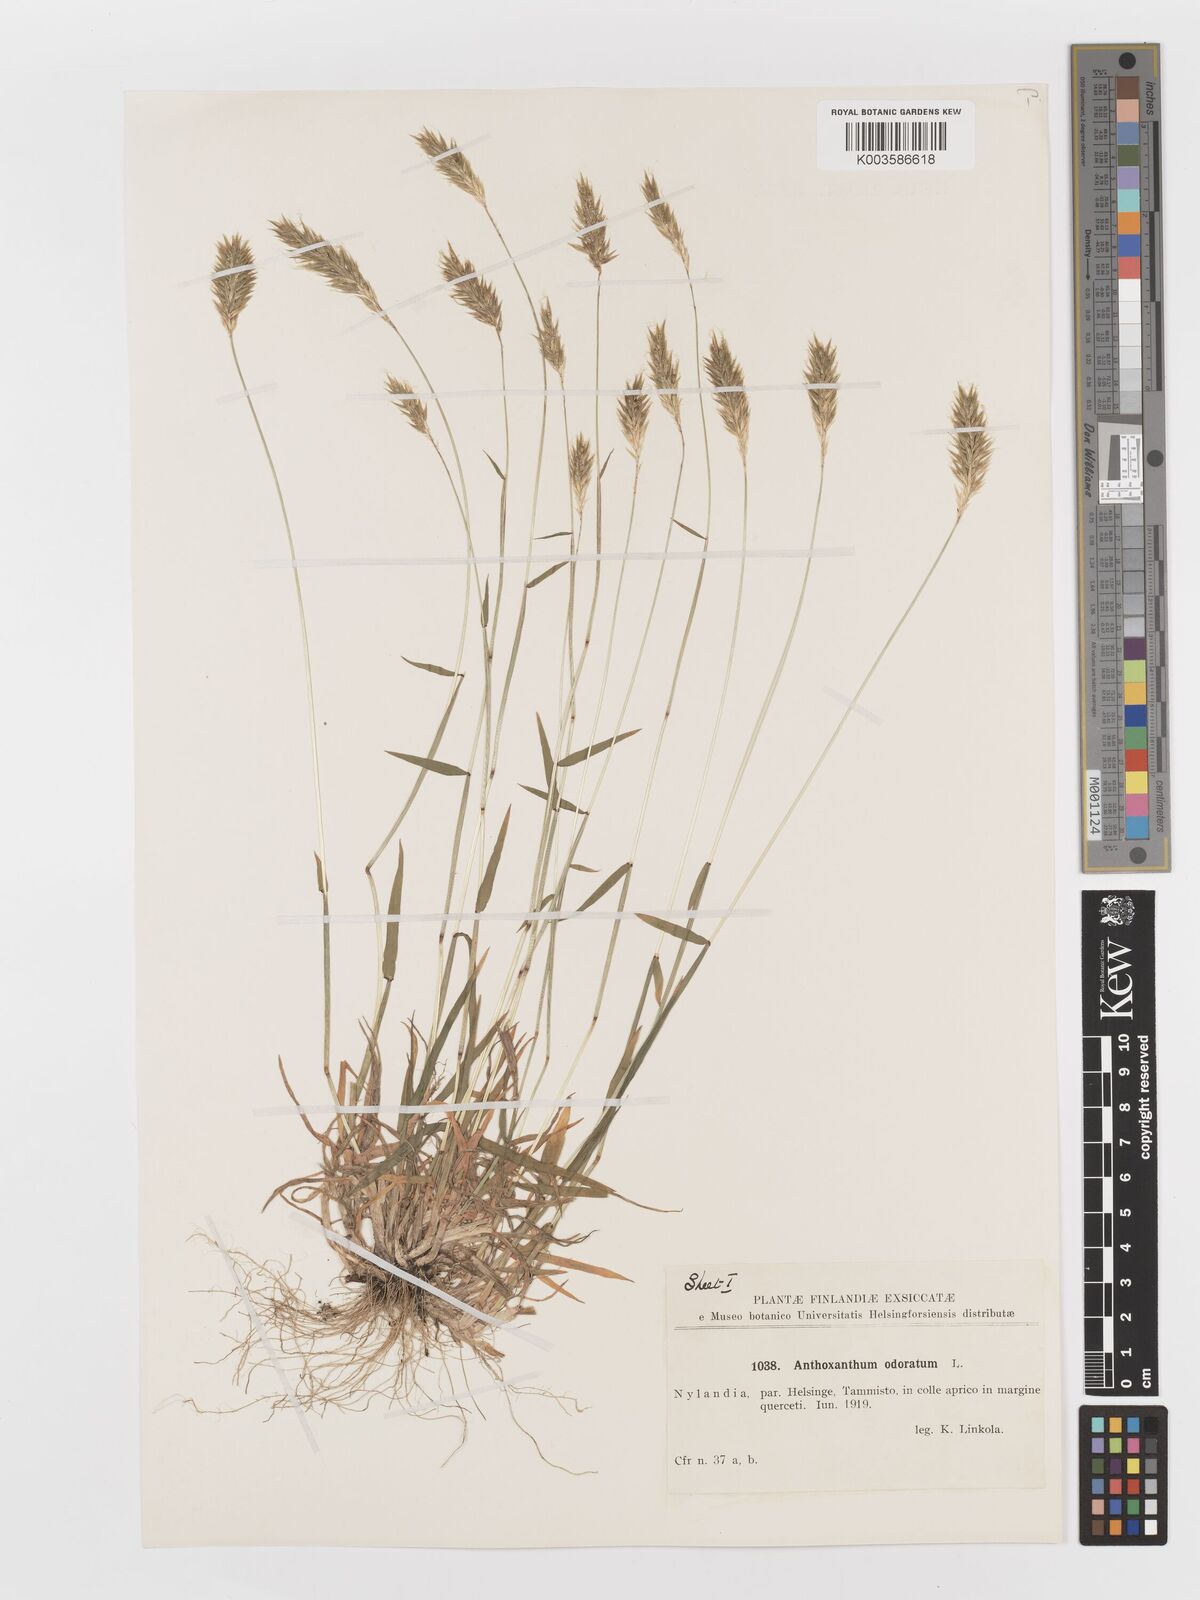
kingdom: Plantae
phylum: Tracheophyta
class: Liliopsida
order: Poales
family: Poaceae
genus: Anthoxanthum
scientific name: Anthoxanthum odoratum
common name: Sweet vernalgrass
